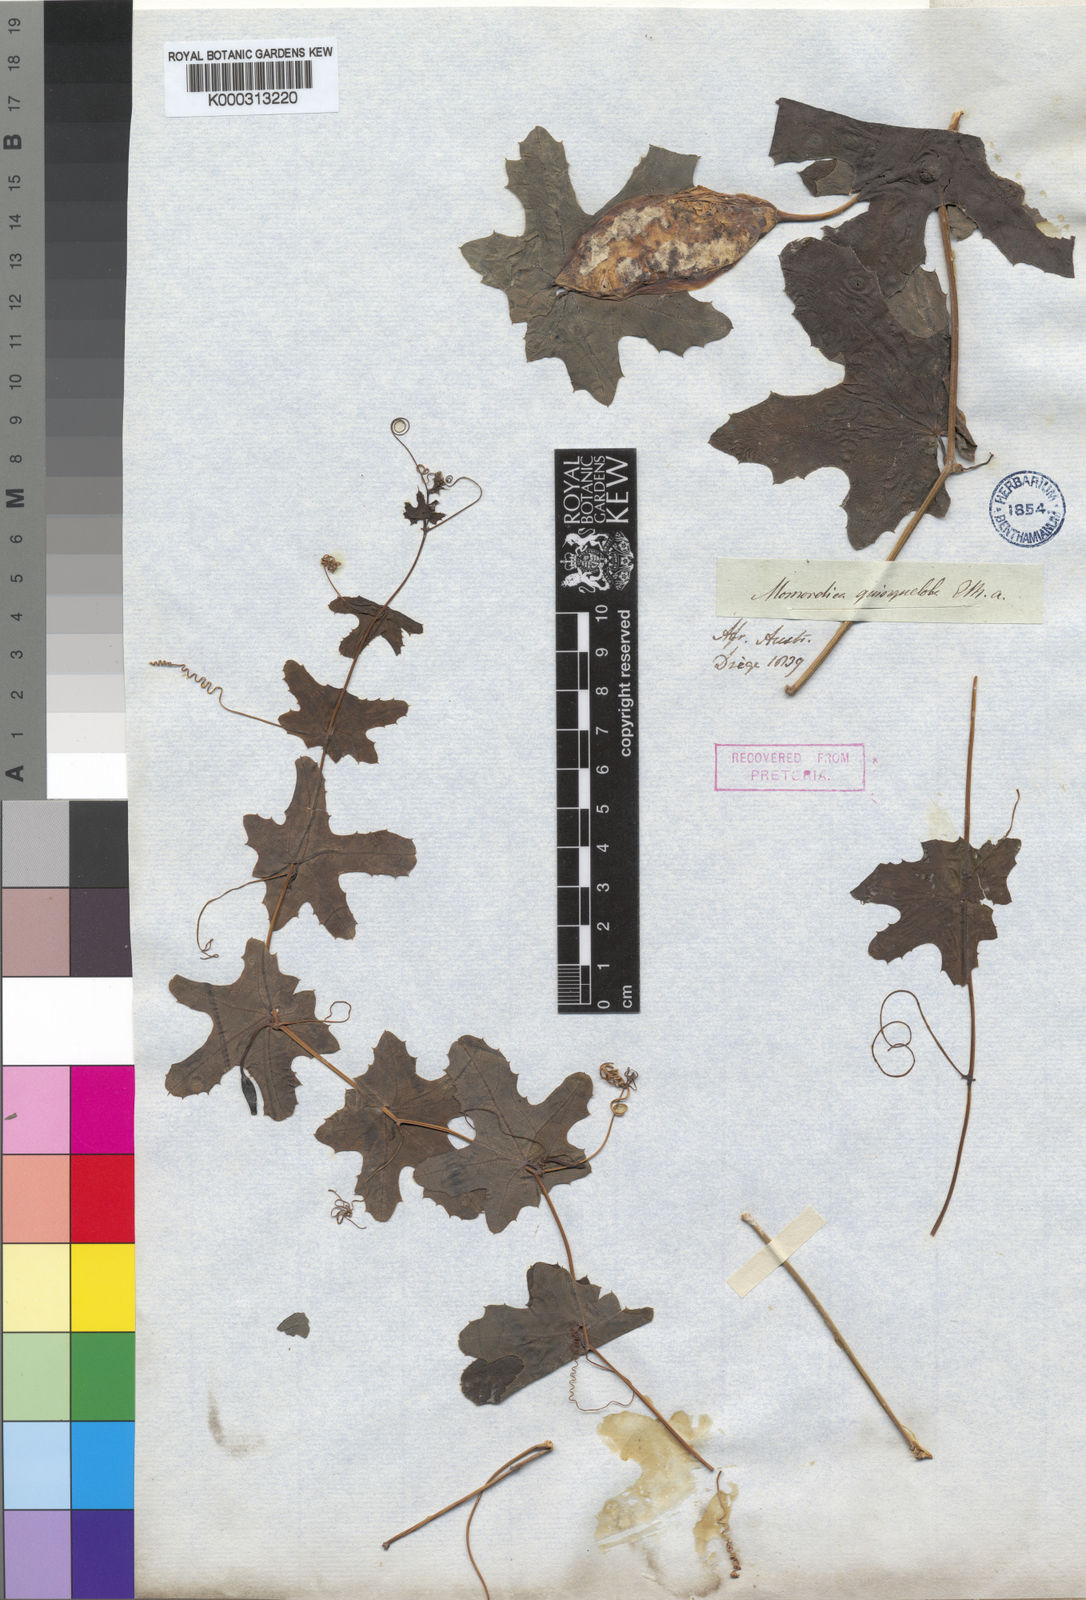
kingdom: Plantae
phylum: Tracheophyta
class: Magnoliopsida
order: Cucurbitales
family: Cucurbitaceae
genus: Coccinia
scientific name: Coccinia quinqueloba
